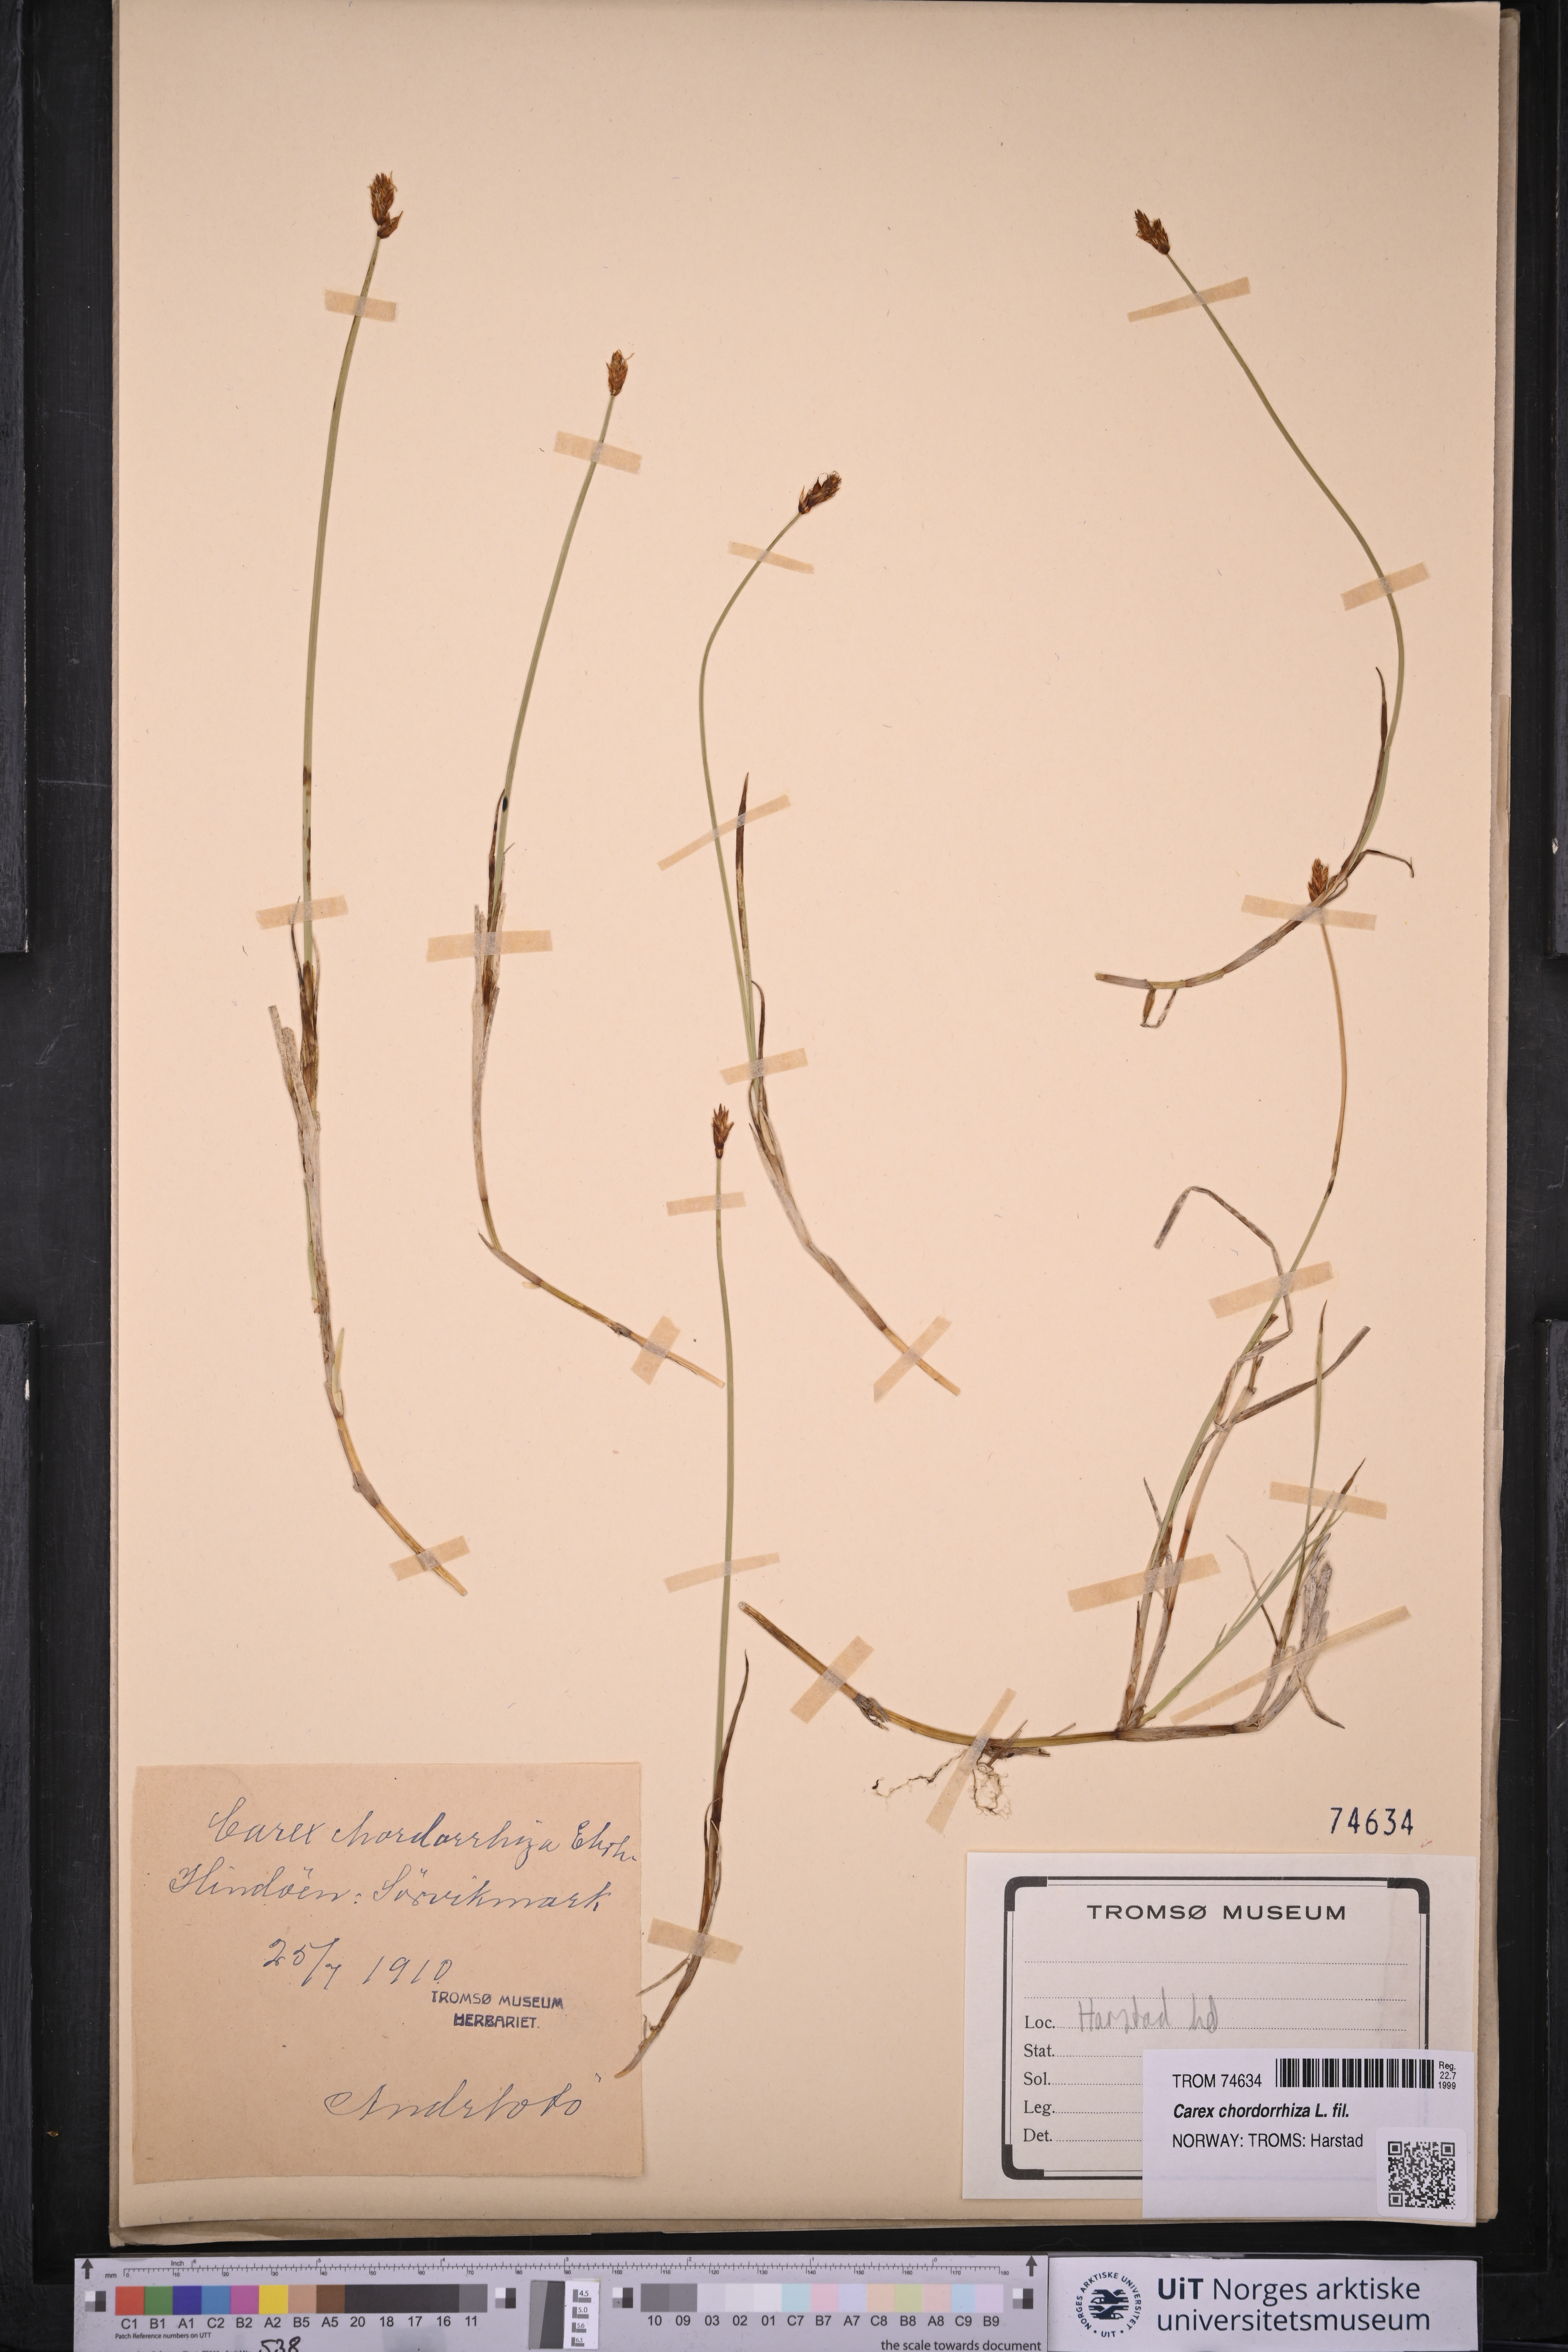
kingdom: Plantae
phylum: Tracheophyta
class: Liliopsida
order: Poales
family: Cyperaceae
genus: Carex
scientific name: Carex chordorrhiza
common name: String sedge
